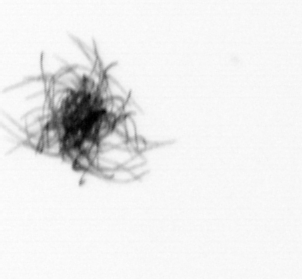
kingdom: Bacteria
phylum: Cyanobacteria
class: Cyanobacteriia
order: Cyanobacteriales
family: Microcoleaceae
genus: Trichodesmium
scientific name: Trichodesmium
